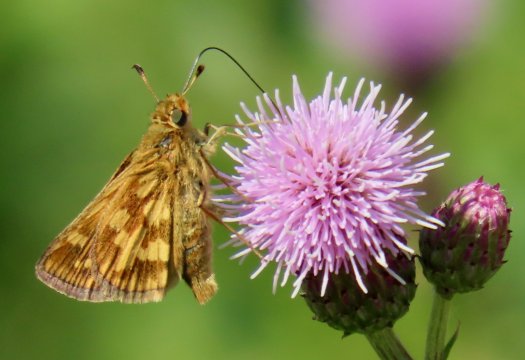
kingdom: Animalia
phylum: Arthropoda
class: Insecta
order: Lepidoptera
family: Hesperiidae
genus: Polites
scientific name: Polites coras
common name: Peck's Skipper
